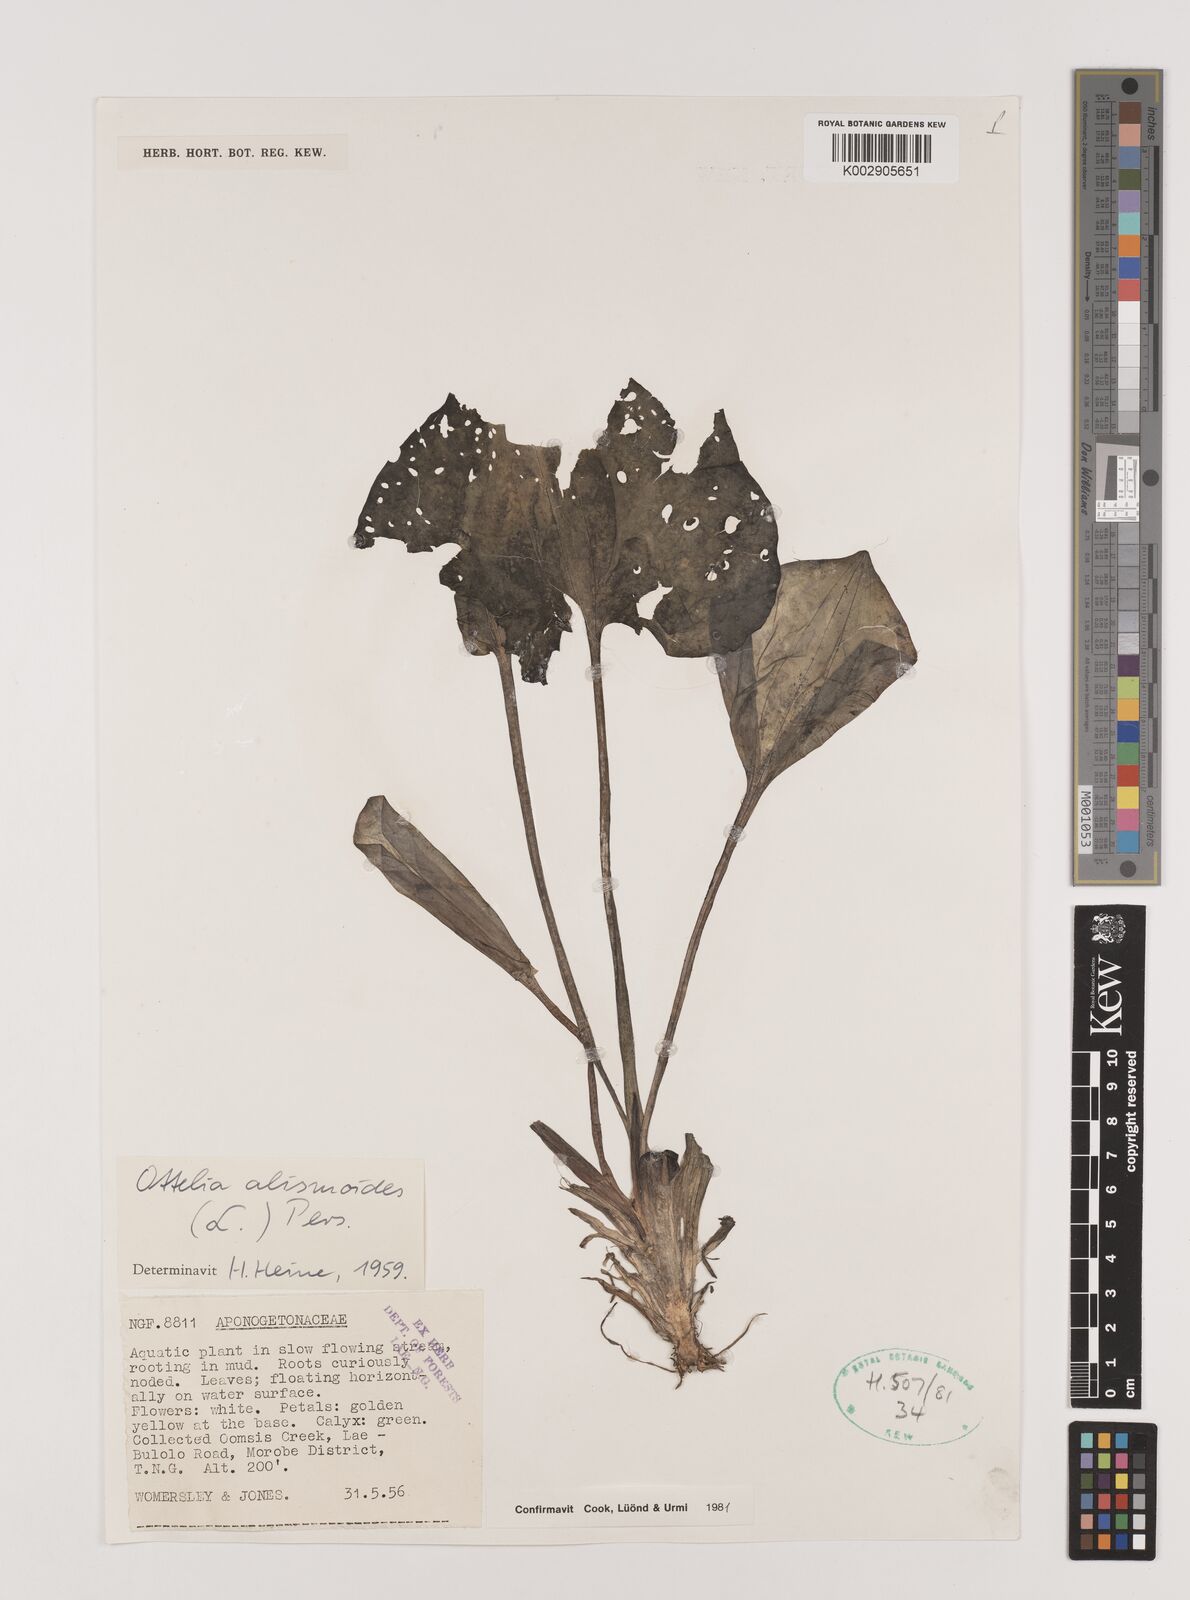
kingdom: Plantae
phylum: Tracheophyta
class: Liliopsida
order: Alismatales
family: Hydrocharitaceae
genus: Ottelia
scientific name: Ottelia alismoides
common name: Duck-lettuce
